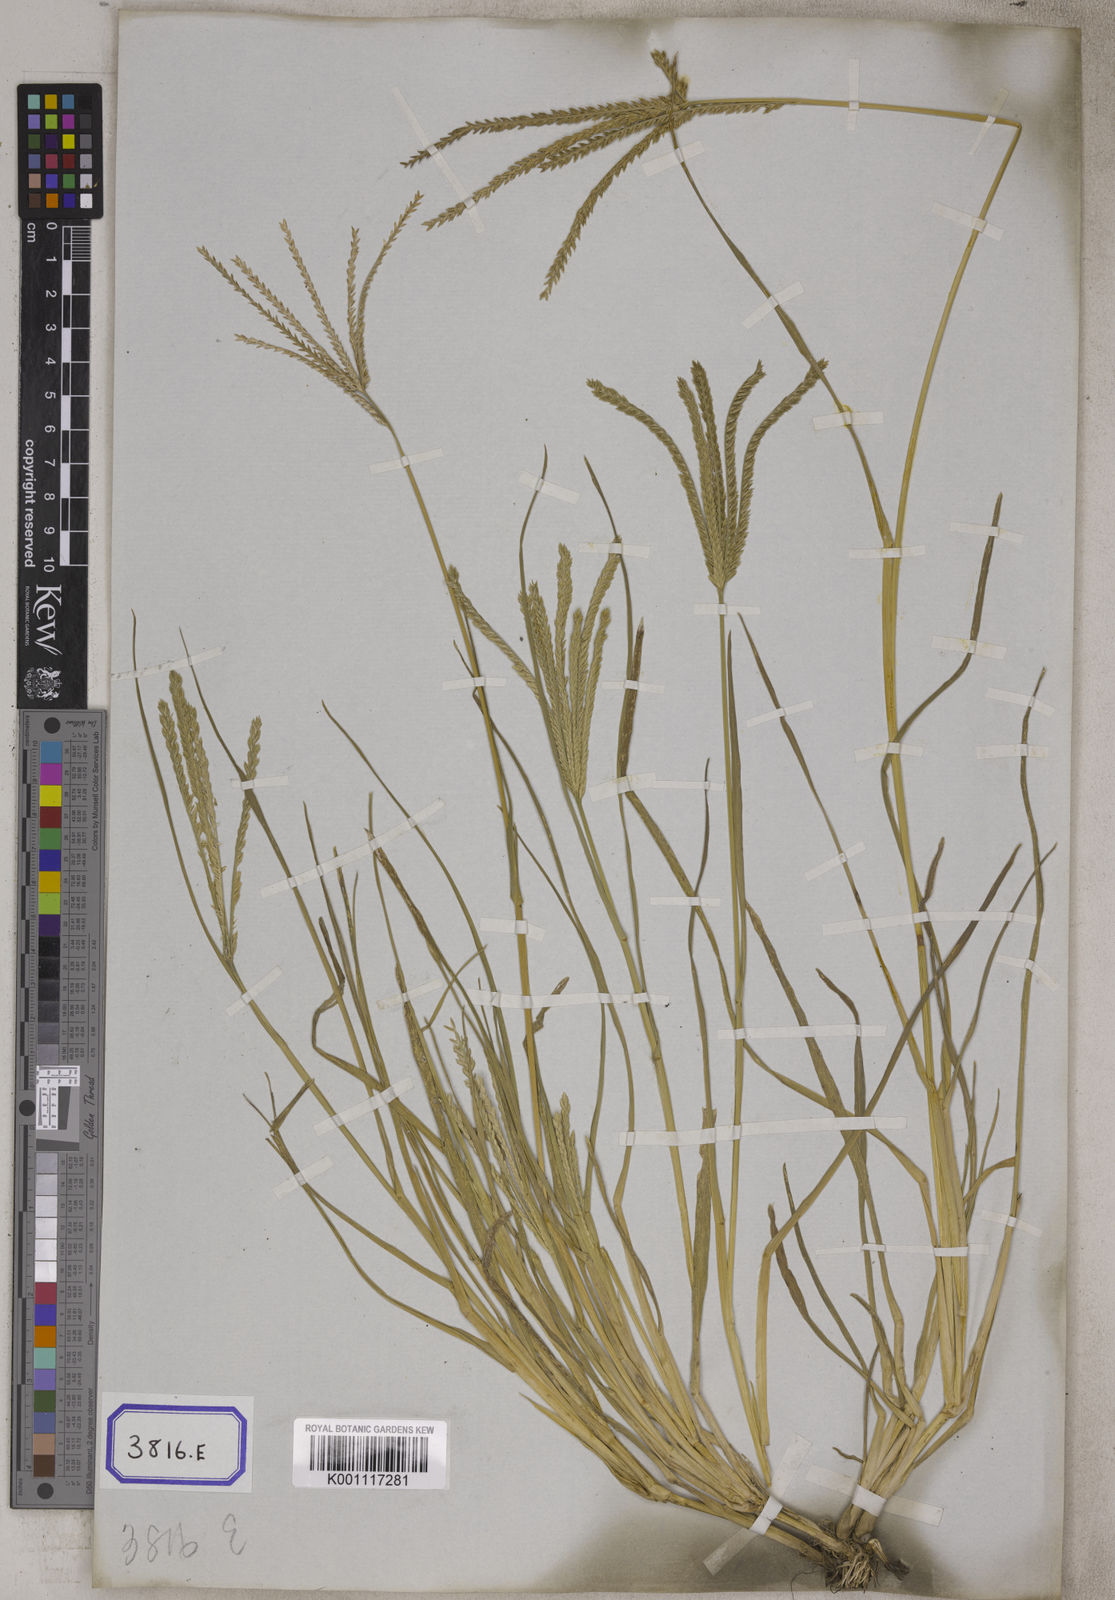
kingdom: Plantae
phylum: Tracheophyta
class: Liliopsida
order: Poales
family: Poaceae
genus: Eleusine
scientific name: Eleusine
